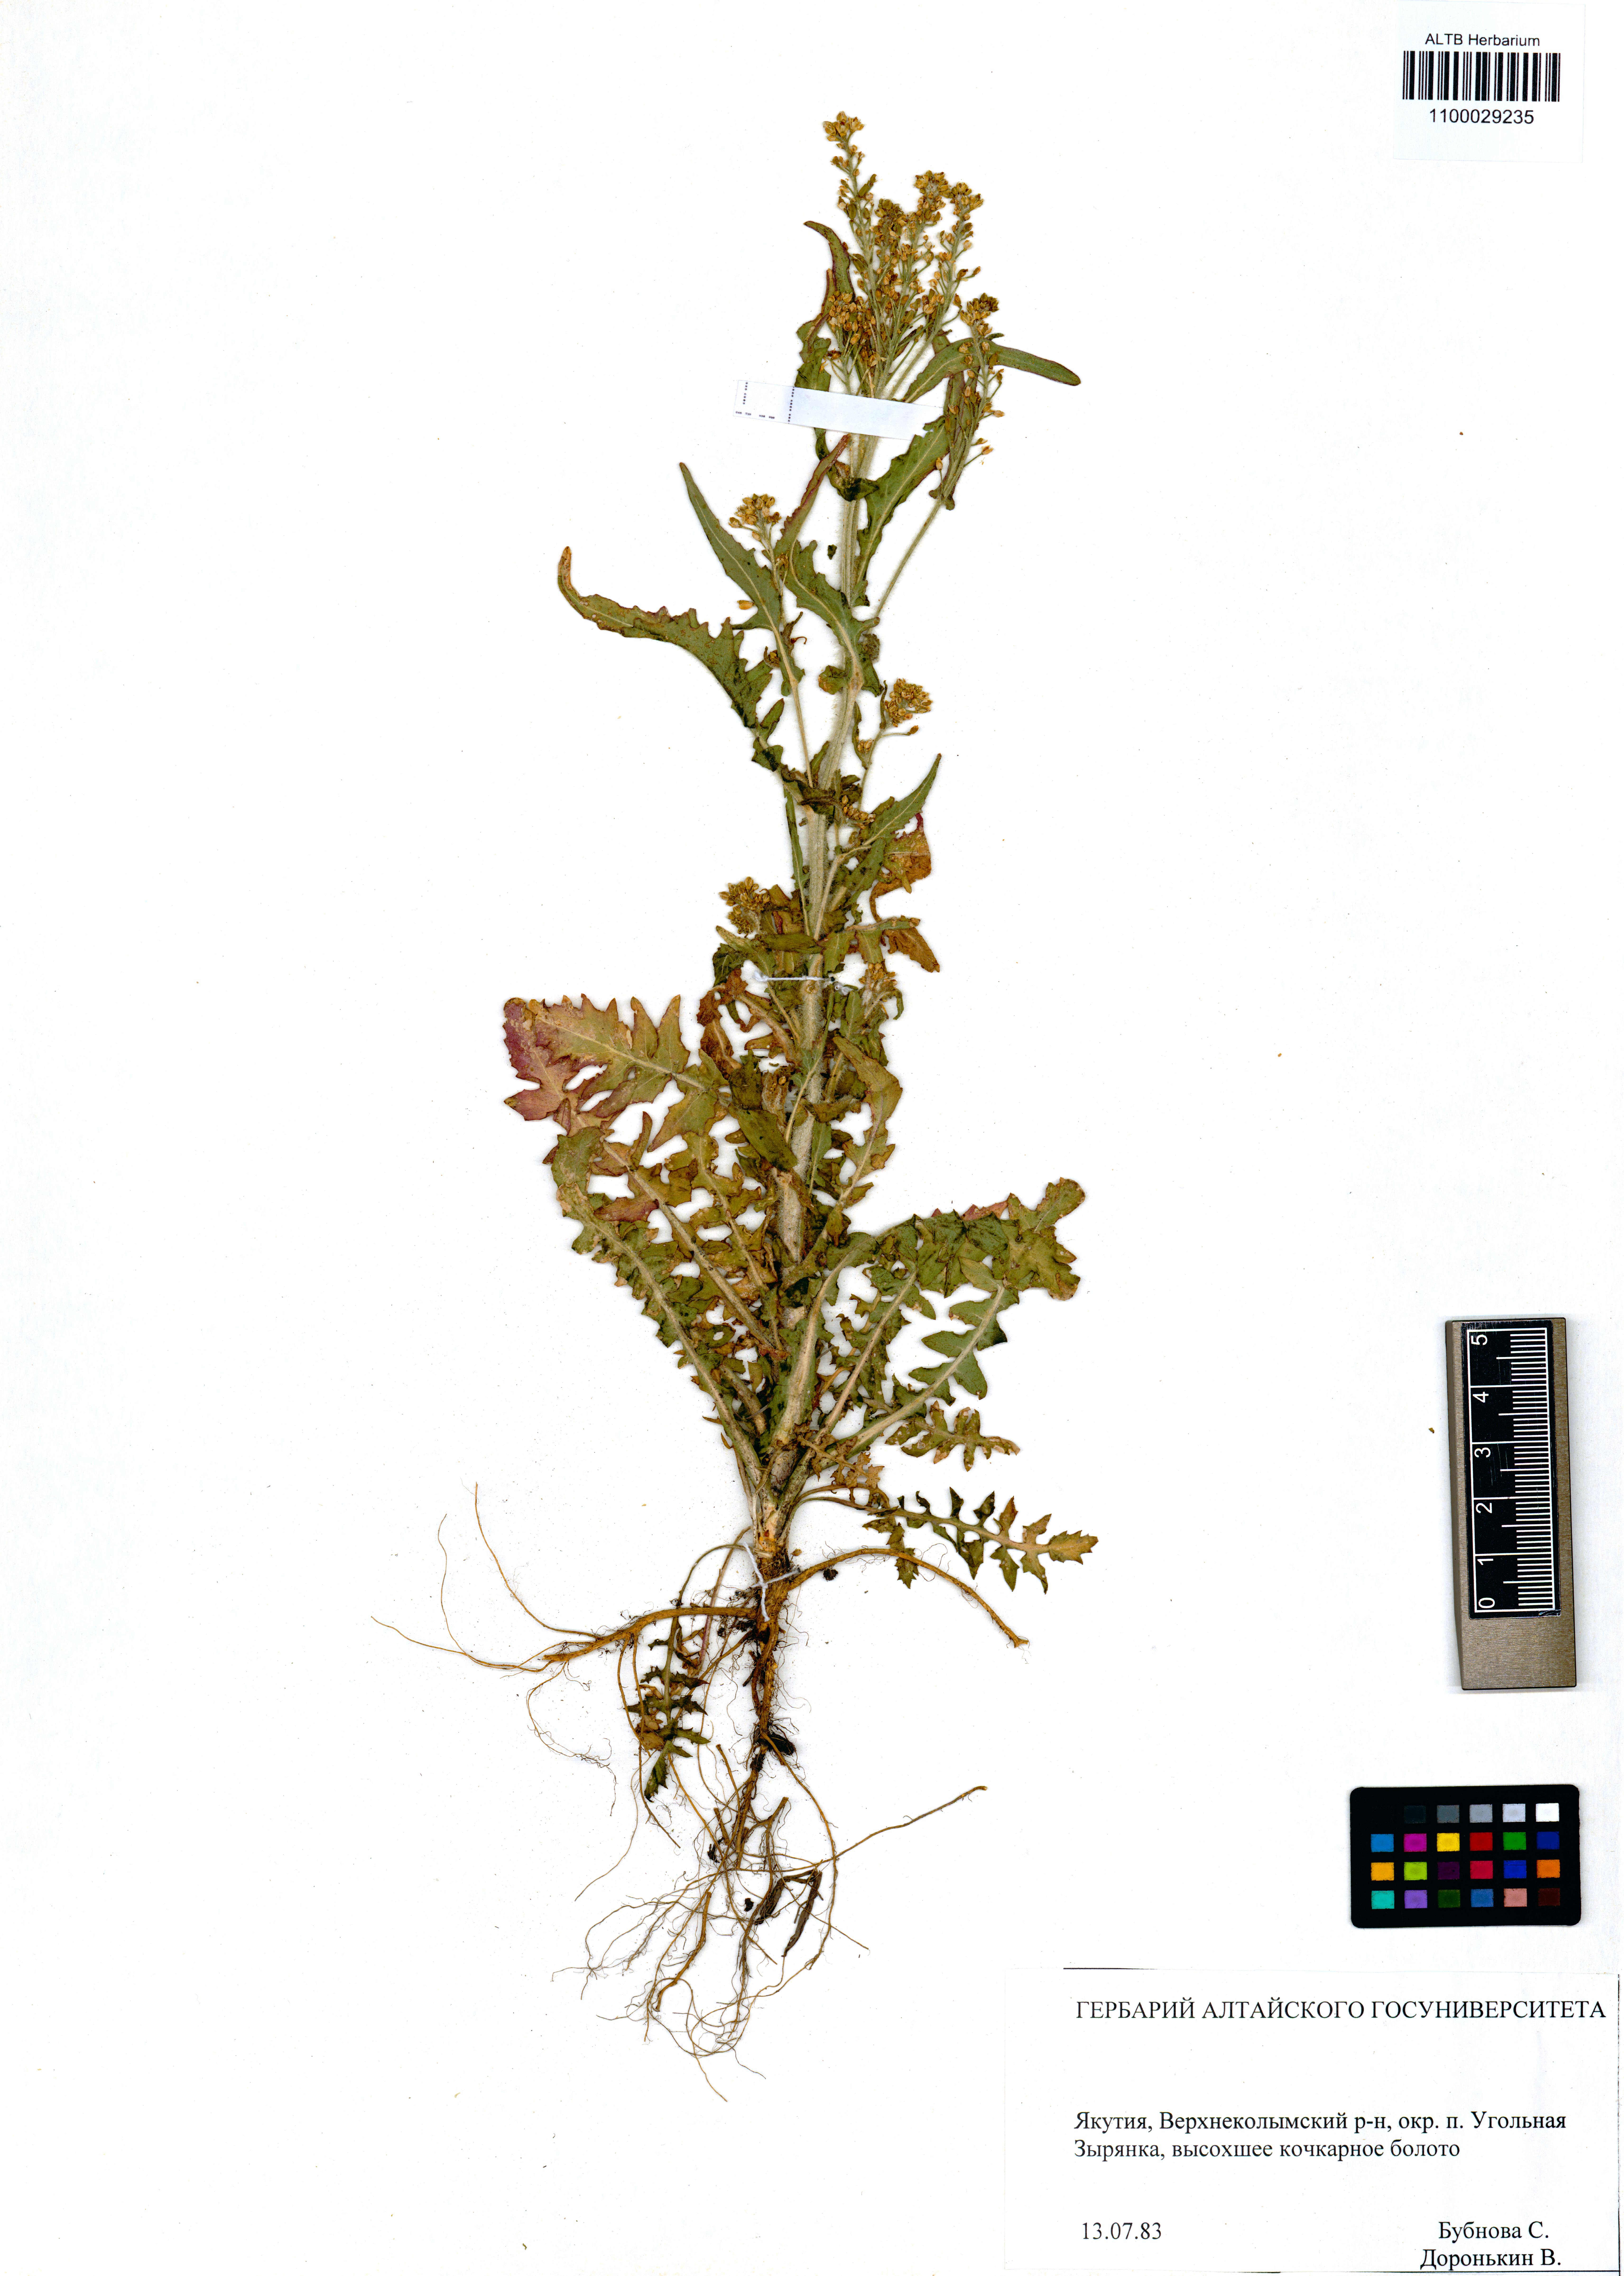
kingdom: Plantae
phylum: Tracheophyta
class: Magnoliopsida
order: Brassicales
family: Brassicaceae
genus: Rorippa
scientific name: Rorippa barbaraefolia
